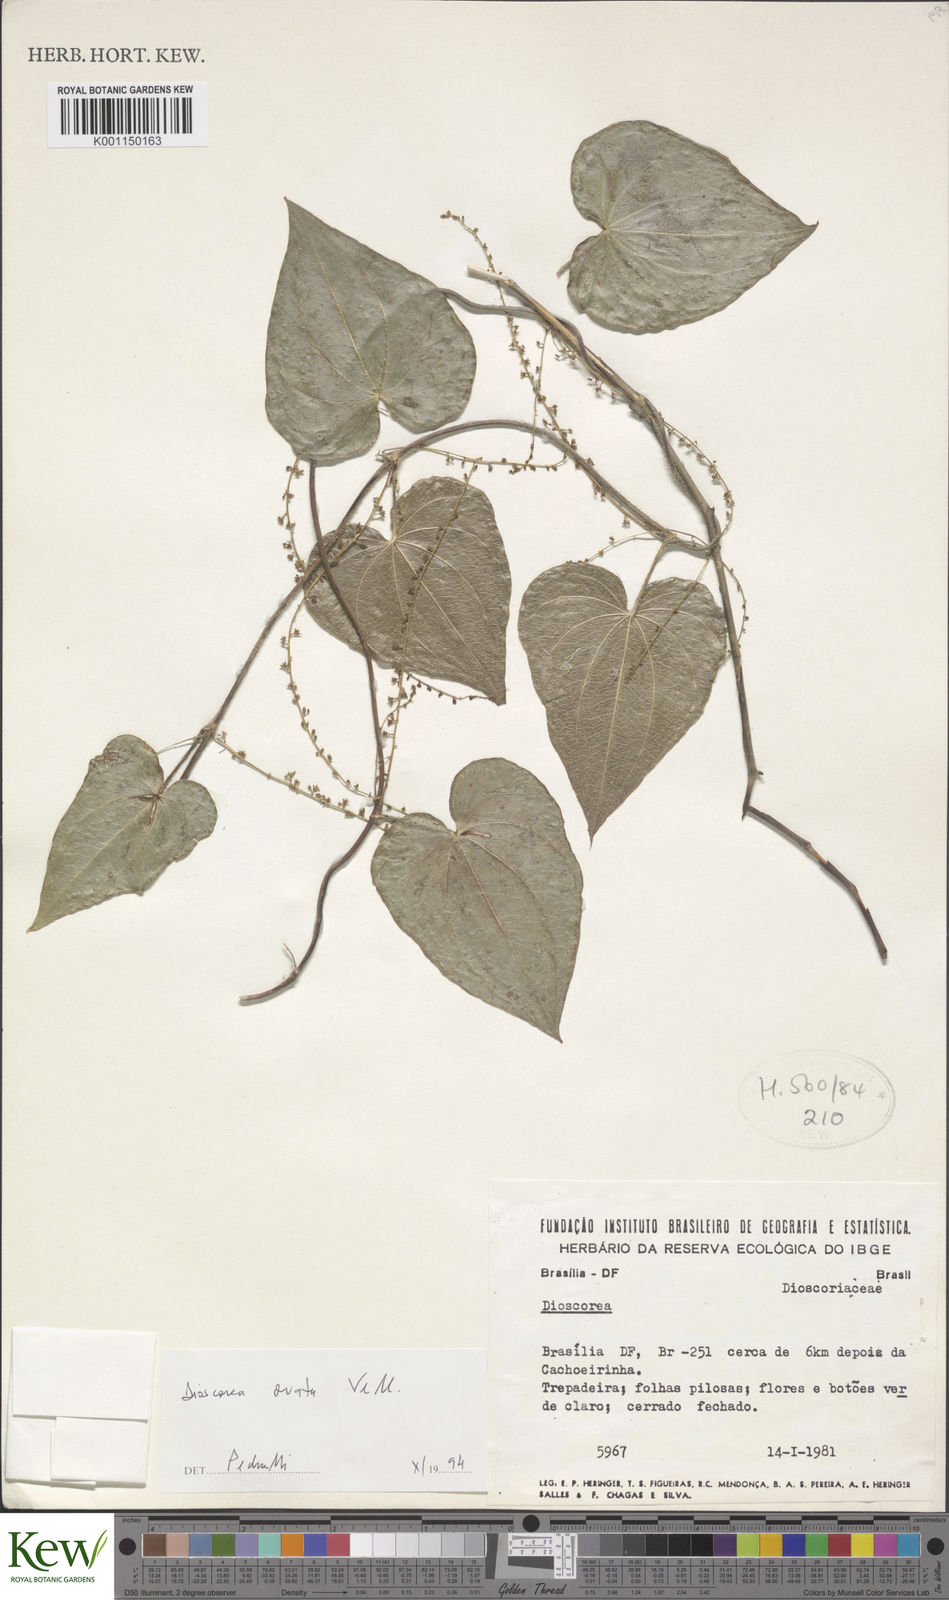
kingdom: Plantae
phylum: Tracheophyta
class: Liliopsida
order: Dioscoreales
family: Dioscoreaceae
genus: Dioscorea
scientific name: Dioscorea
